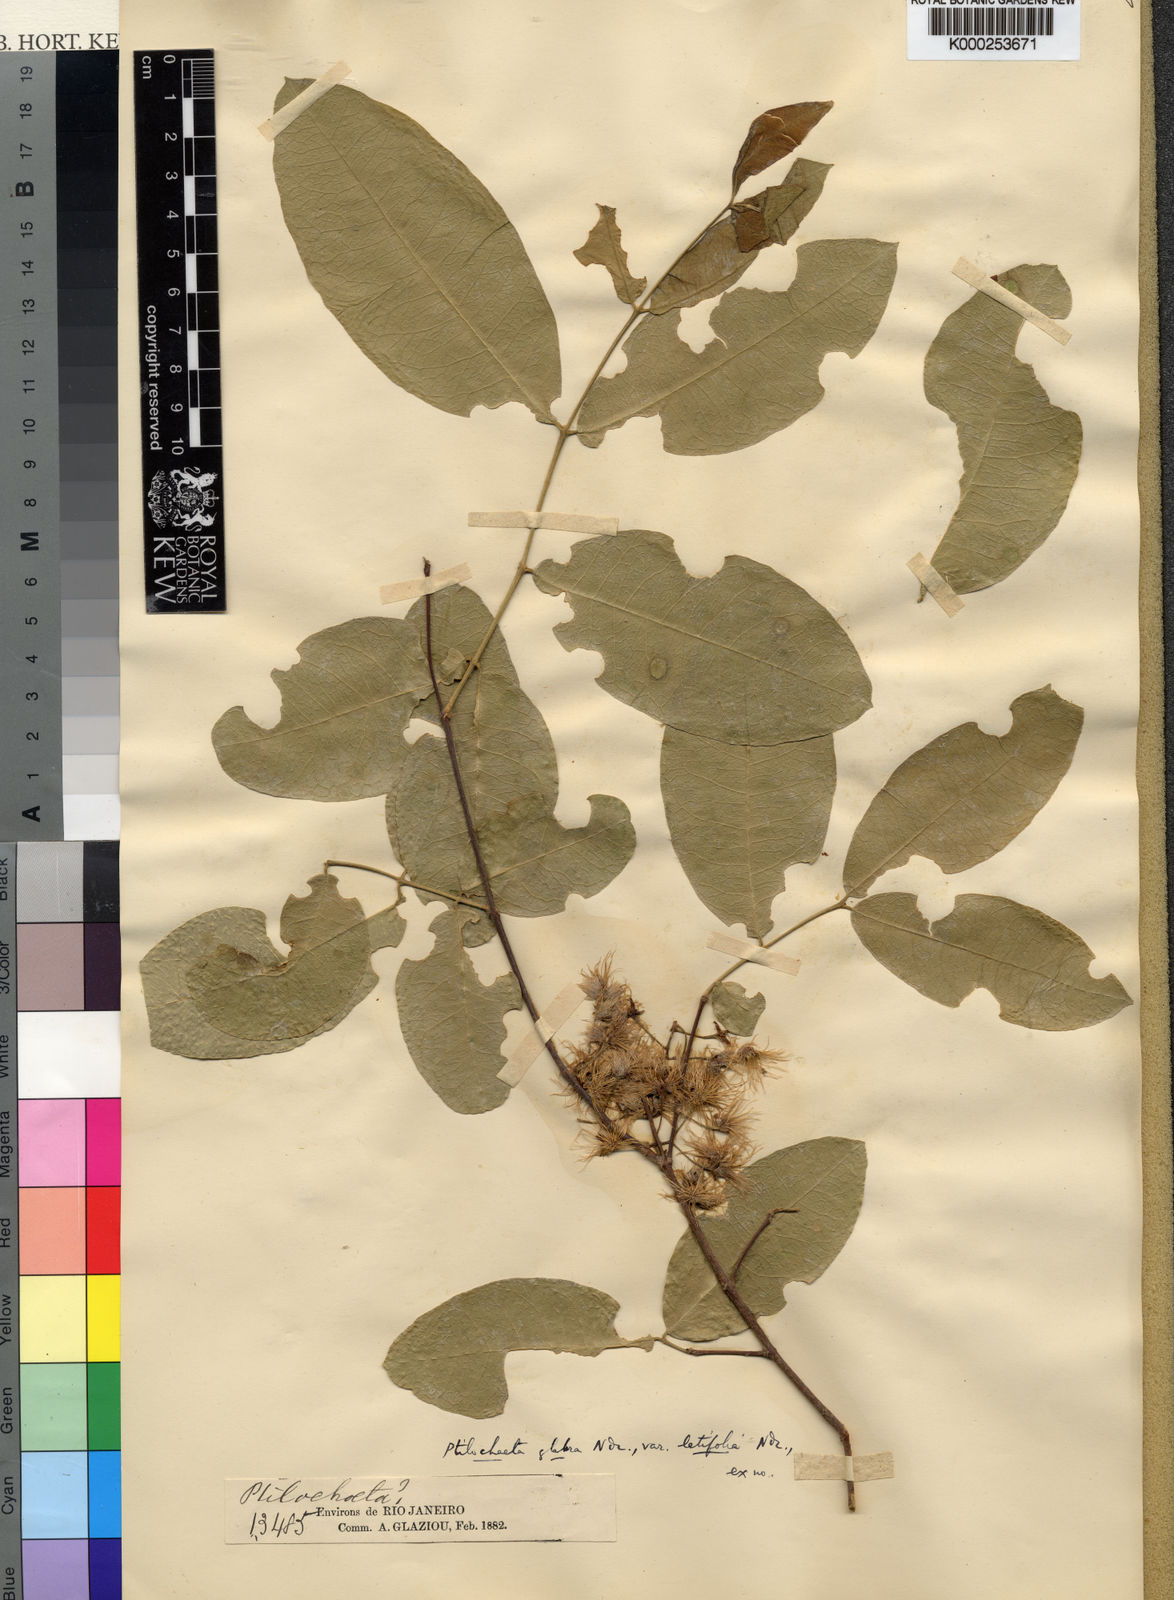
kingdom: Plantae
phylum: Tracheophyta
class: Magnoliopsida
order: Malpighiales
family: Malpighiaceae
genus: Ptilochaeta
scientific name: Ptilochaeta glabra
